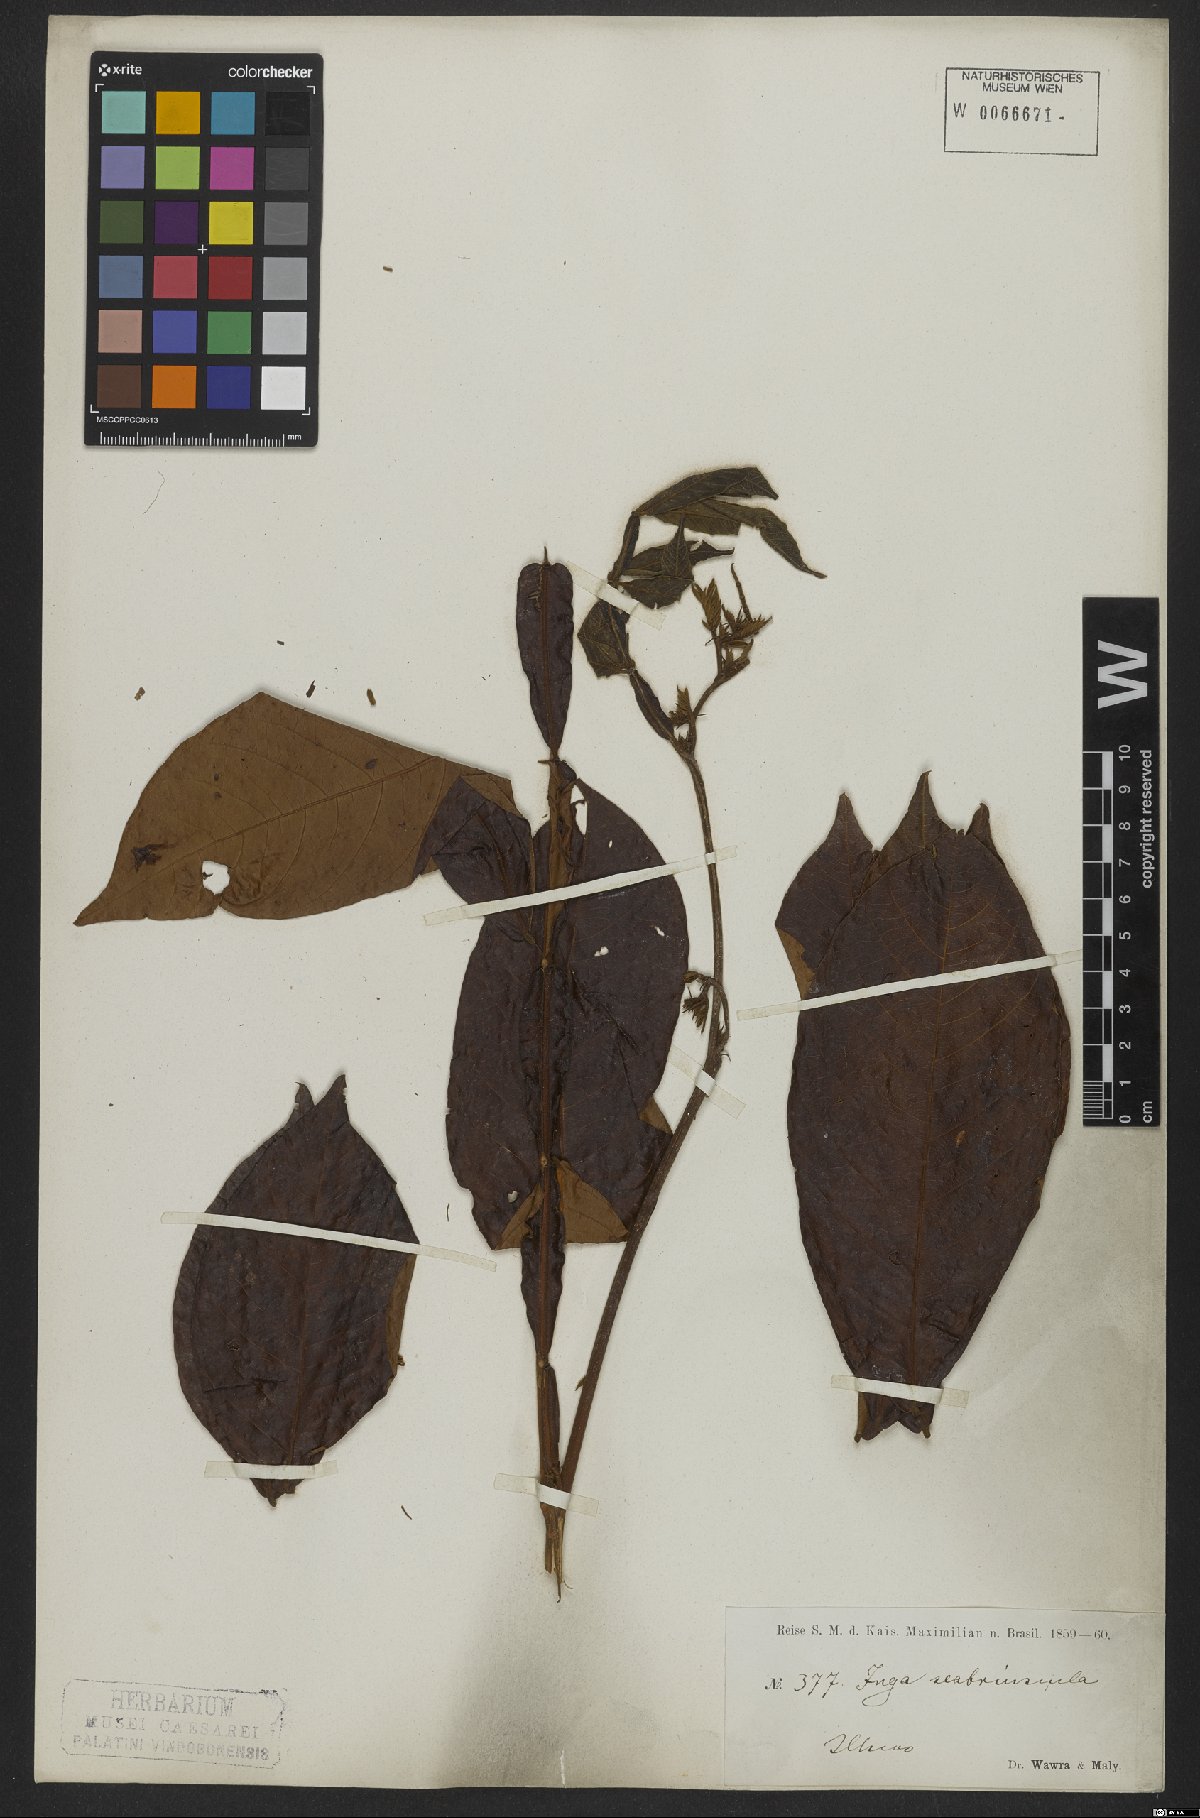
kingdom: Plantae
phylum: Tracheophyta
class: Magnoliopsida
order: Fabales
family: Fabaceae
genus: Inga
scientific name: Inga edulis
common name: Ice cream bean
